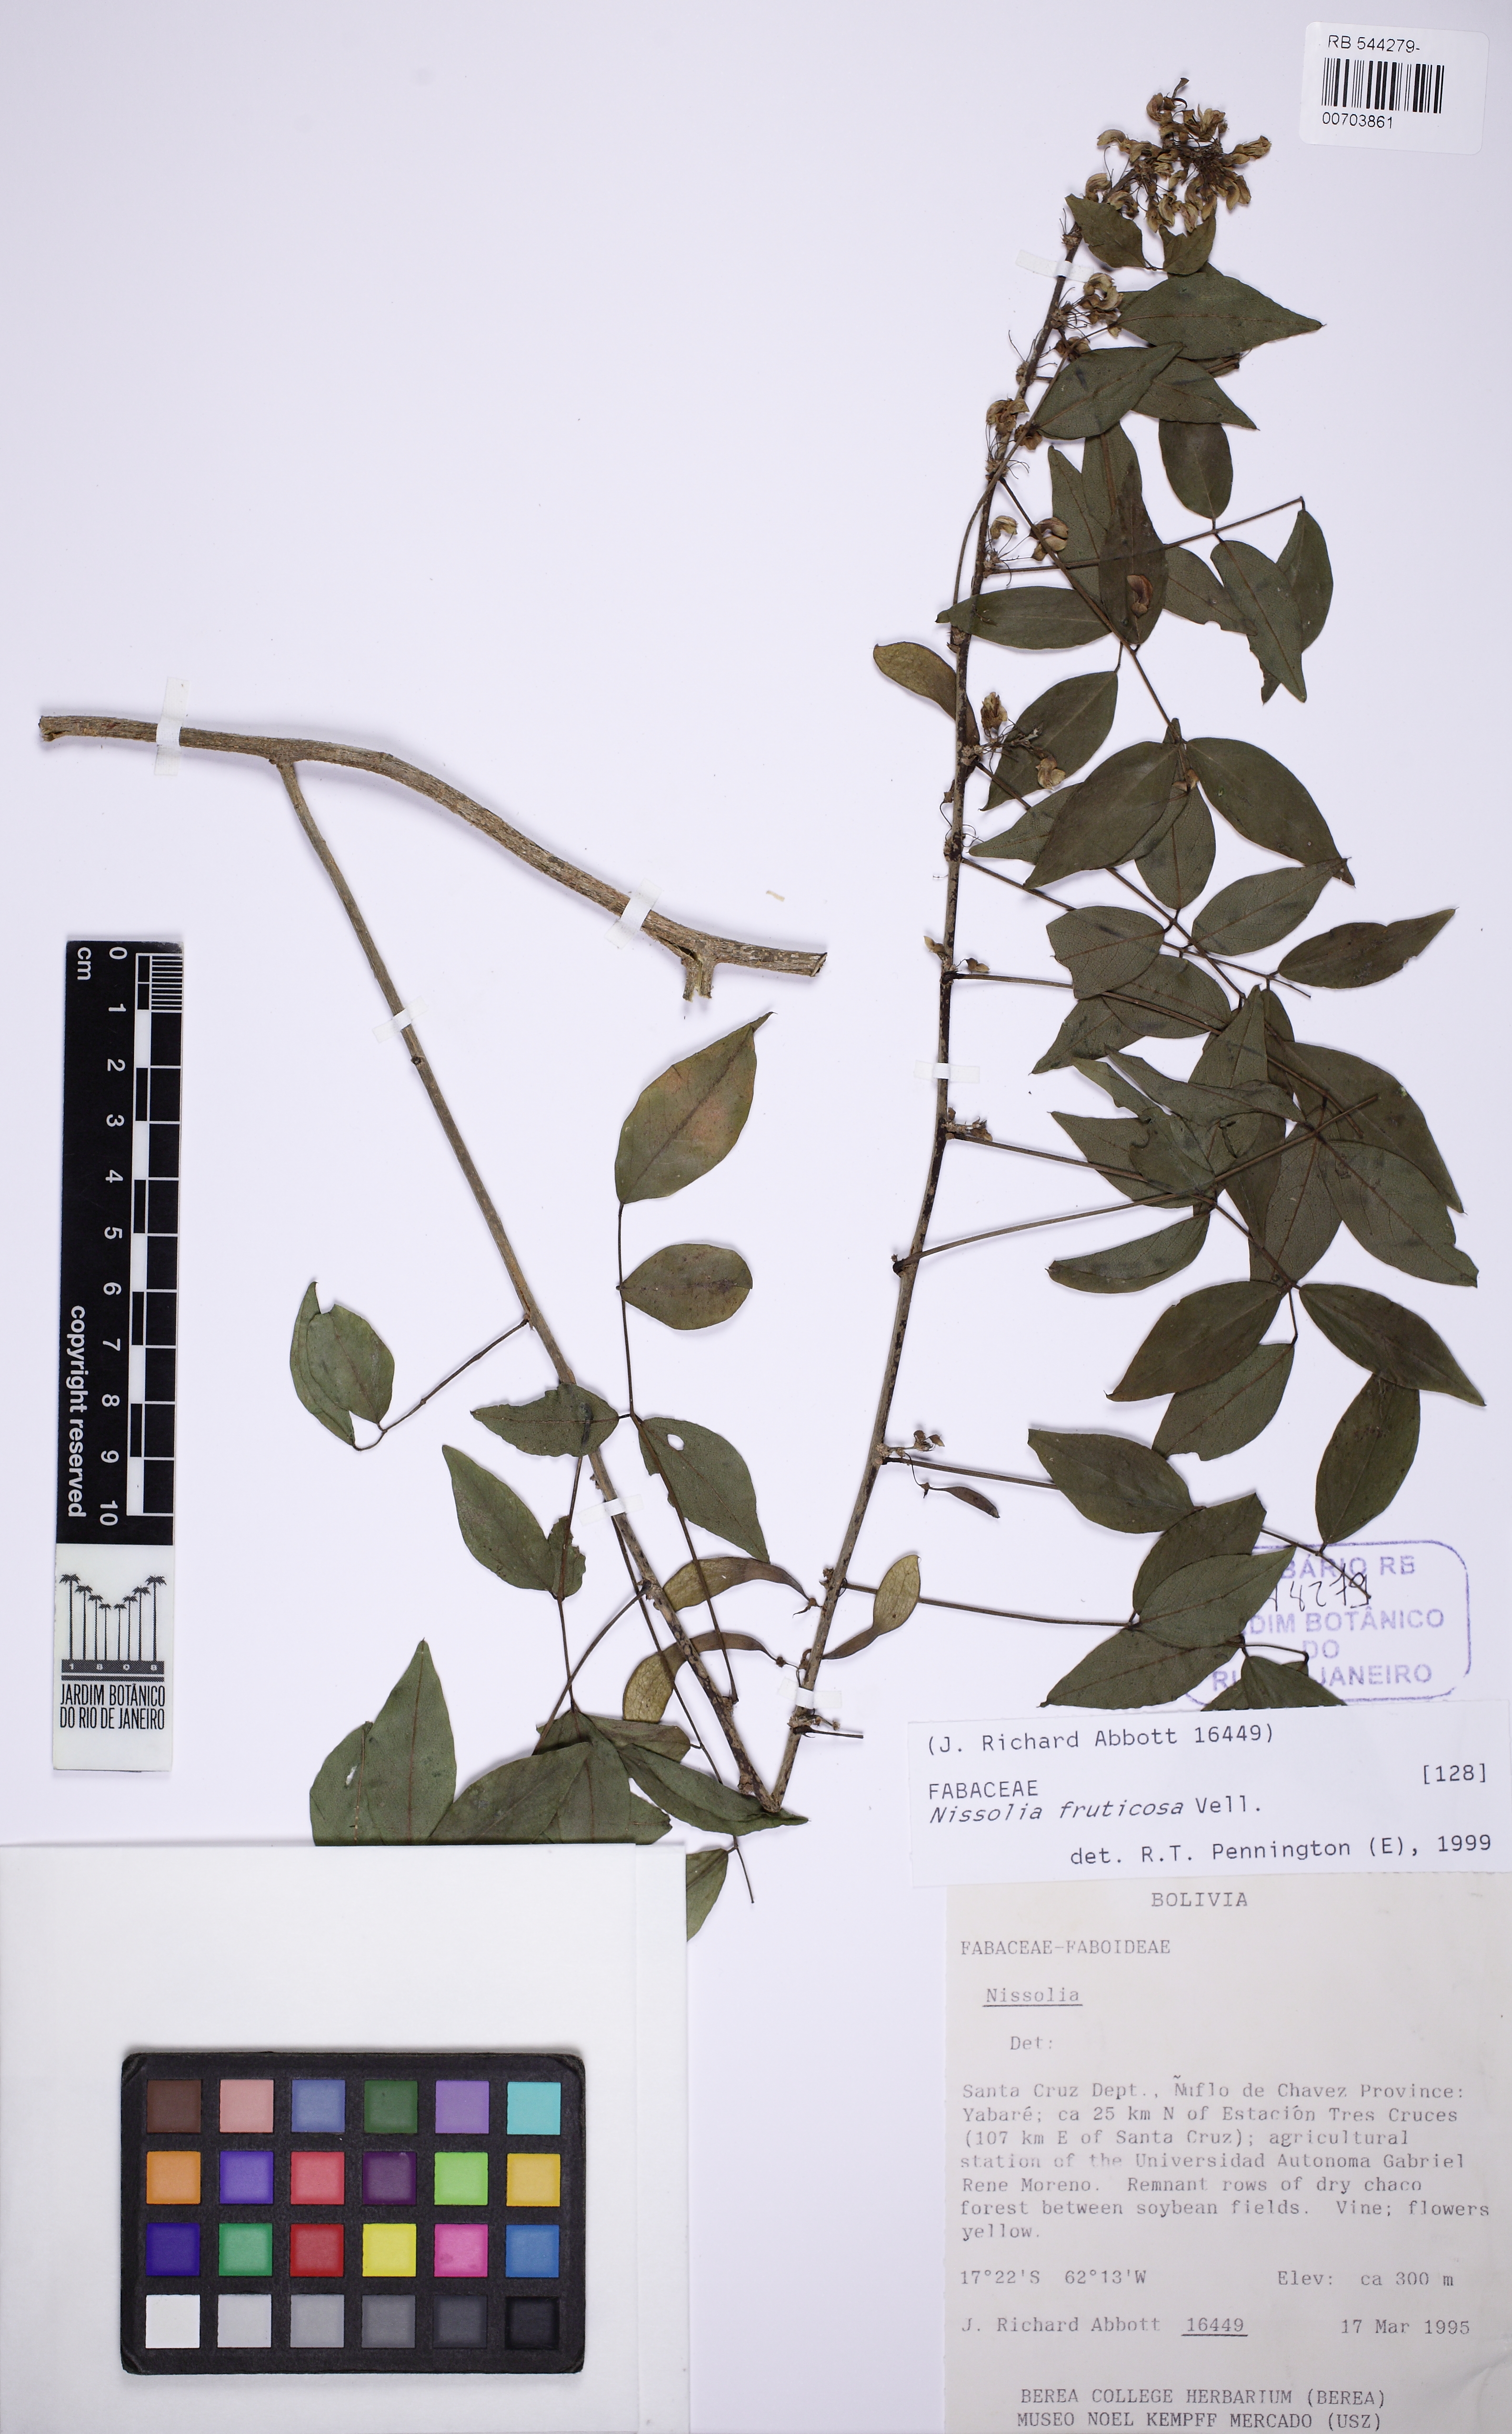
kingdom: Plantae
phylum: Tracheophyta
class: Magnoliopsida
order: Fabales
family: Fabaceae
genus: Nissolia
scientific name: Nissolia fruticosa
